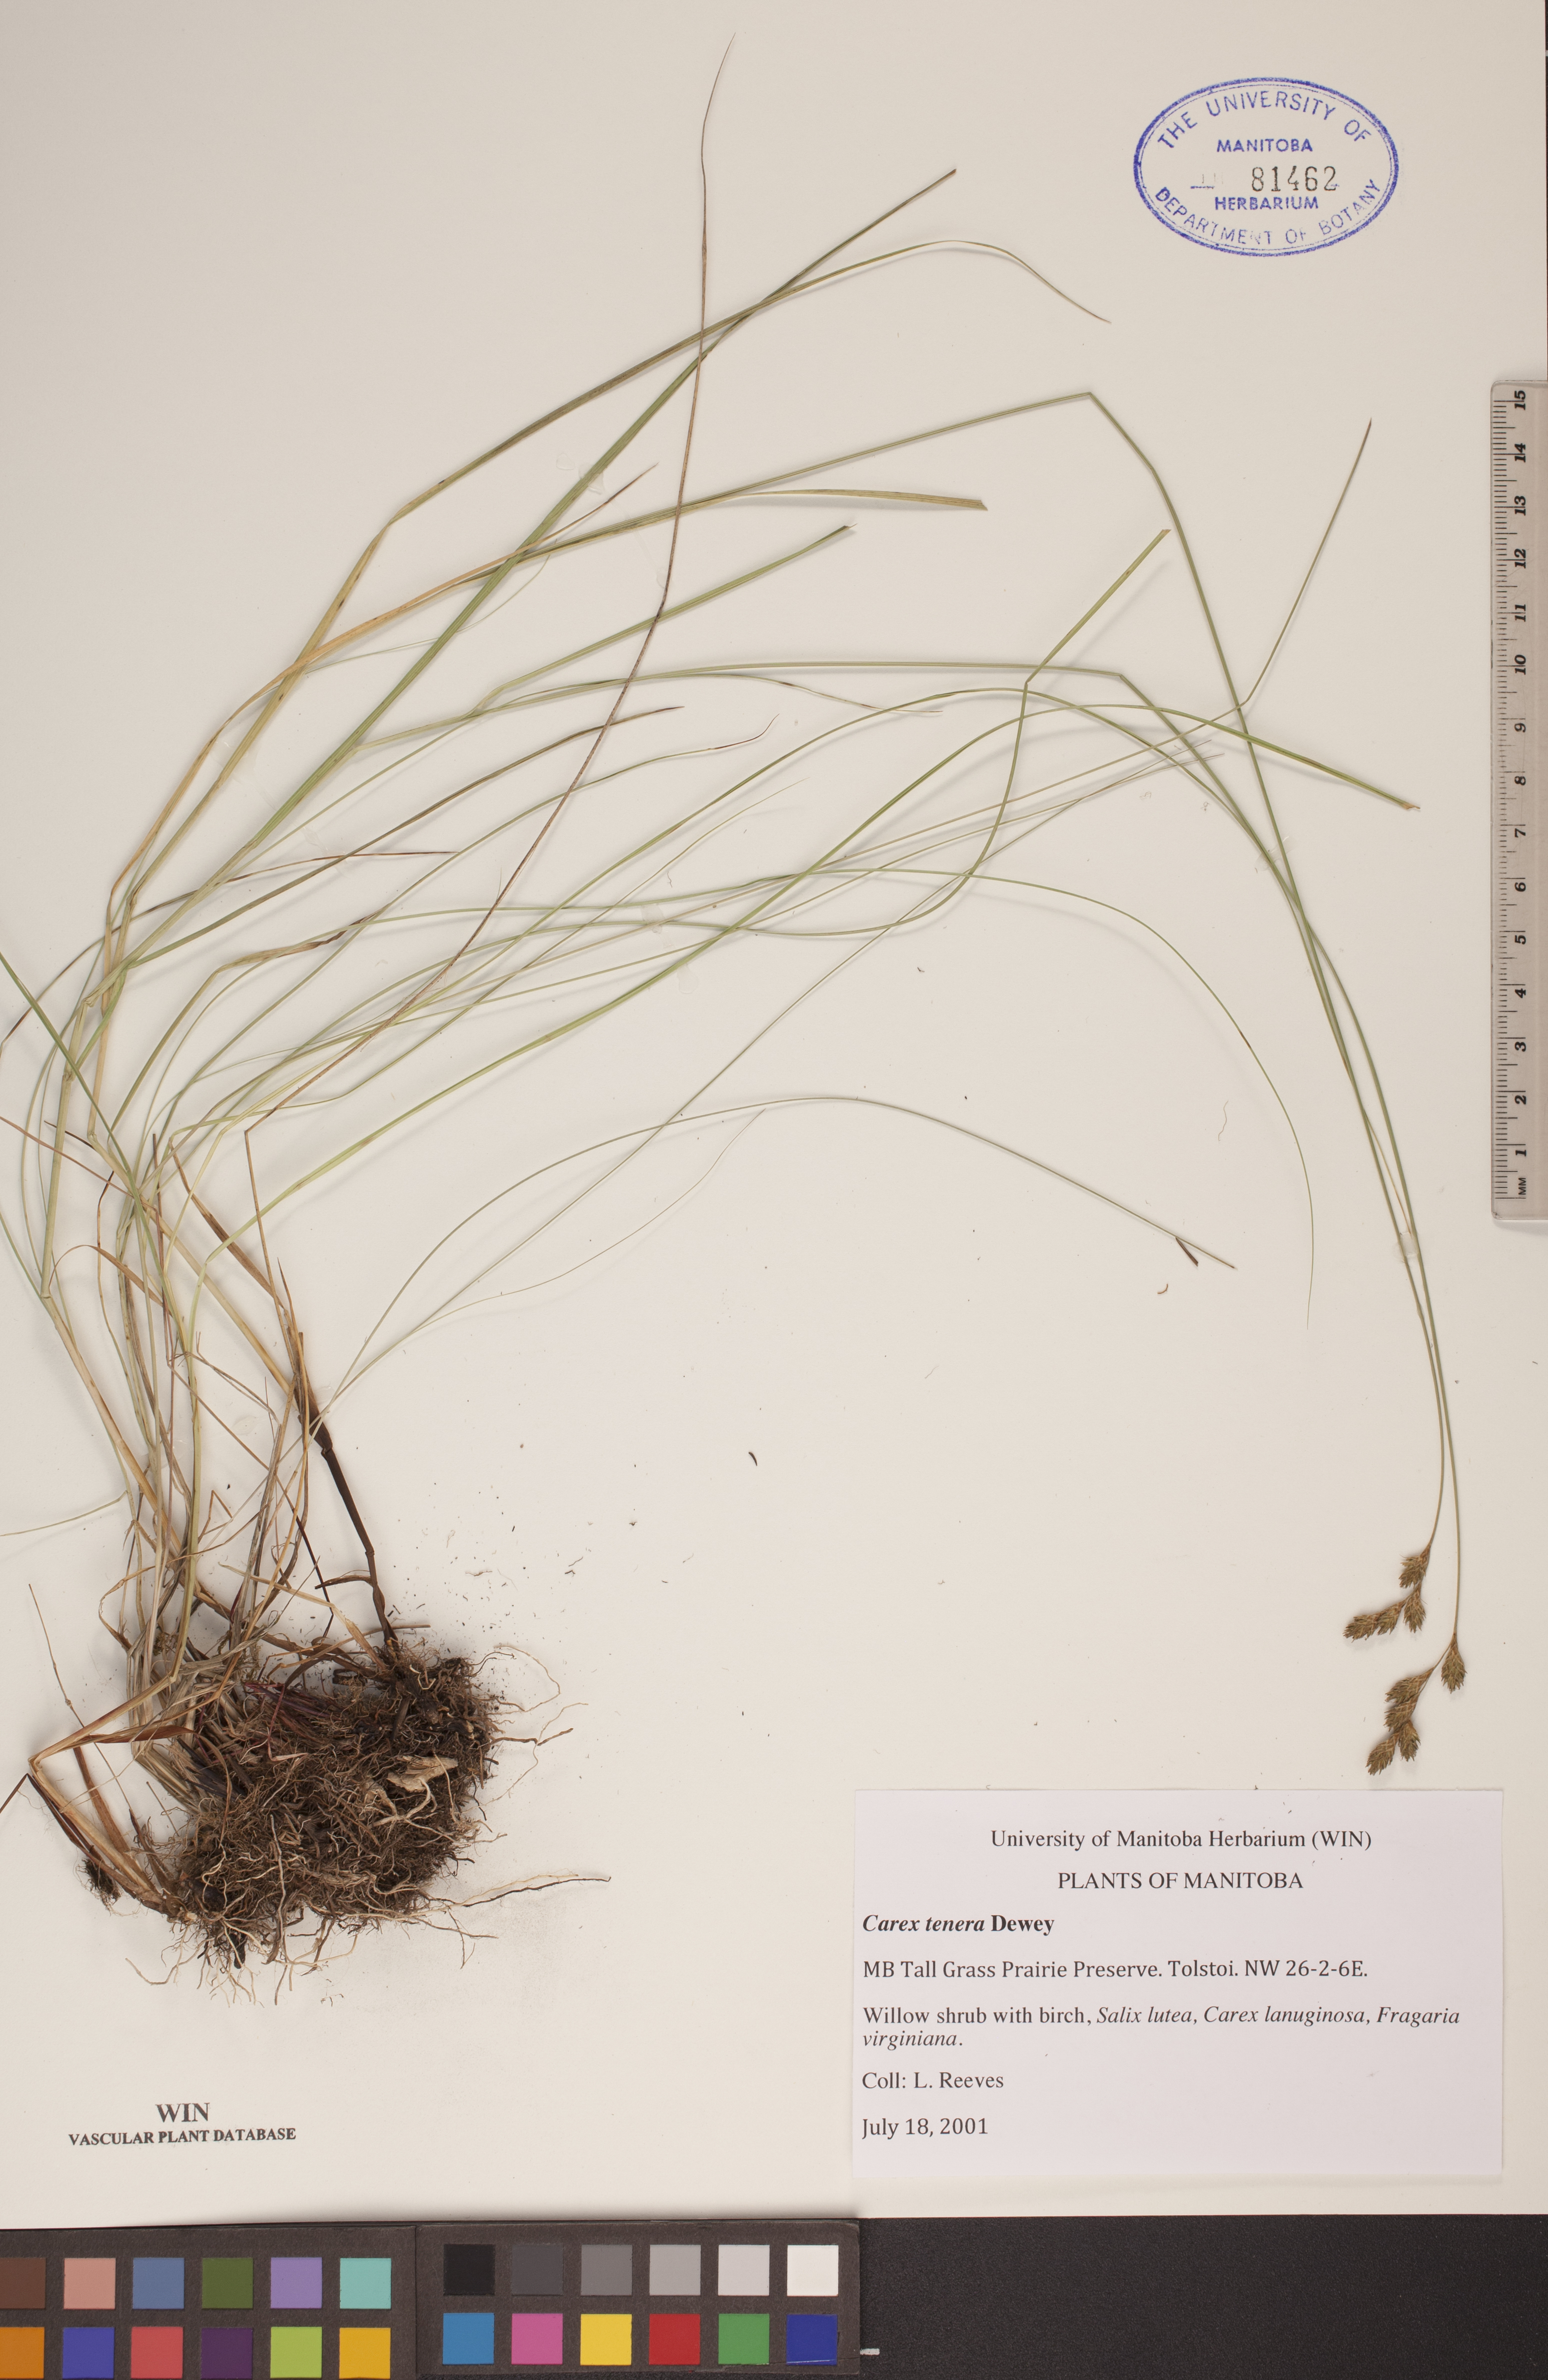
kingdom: Plantae
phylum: Tracheophyta
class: Liliopsida
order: Poales
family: Cyperaceae
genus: Carex
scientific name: Carex tenera
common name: Broad-fruited sedge
